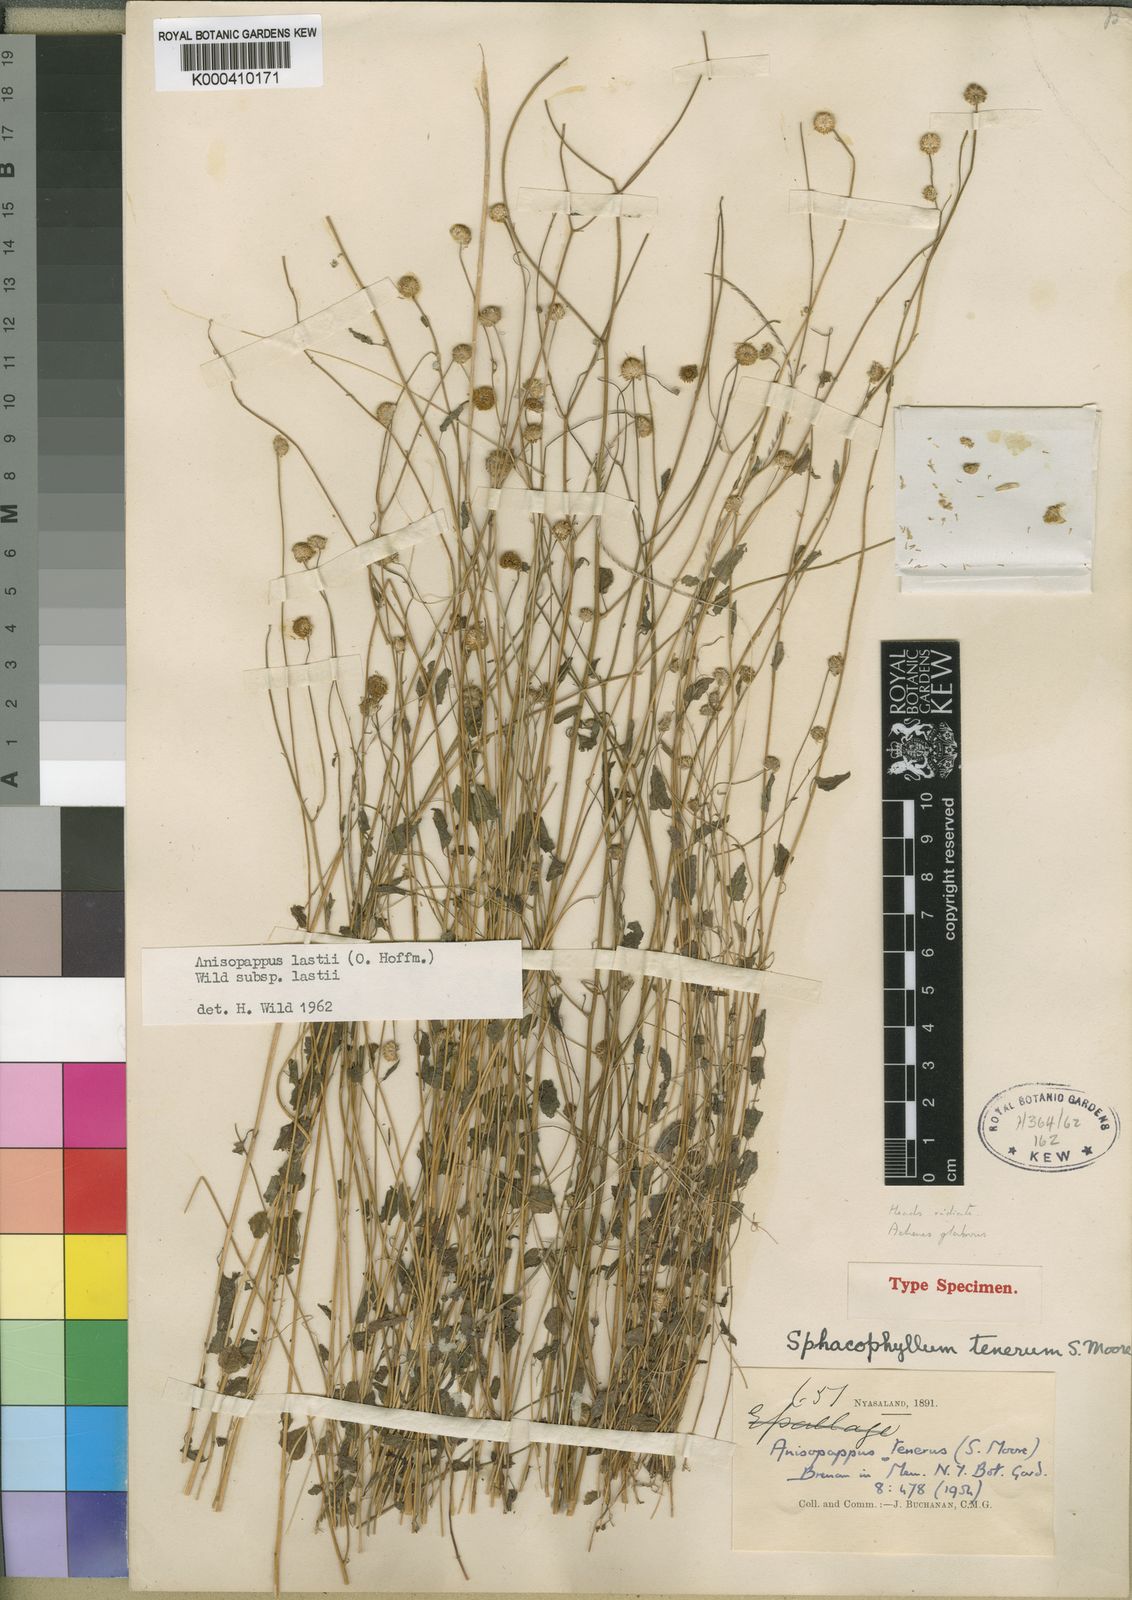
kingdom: Plantae
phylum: Tracheophyta
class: Magnoliopsida
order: Asterales
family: Asteraceae
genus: Anisopappus
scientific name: Anisopappus chinensis
